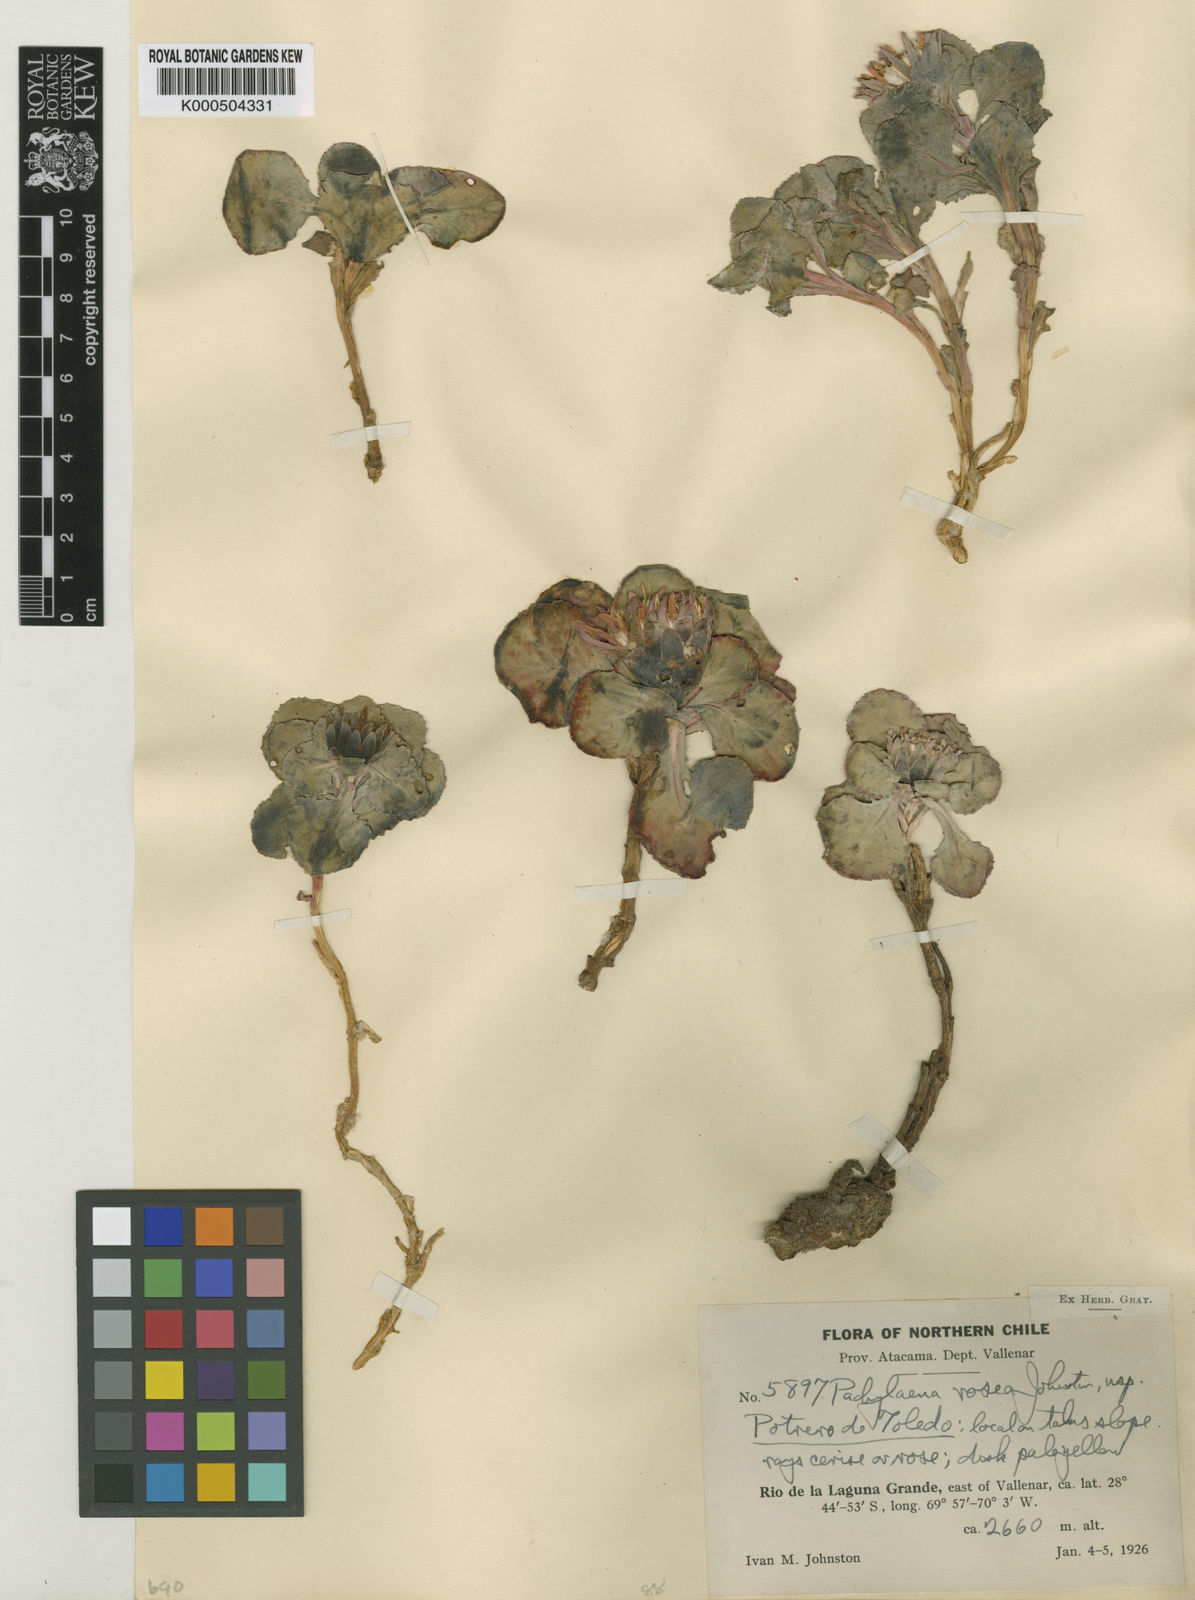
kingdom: Plantae
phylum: Tracheophyta
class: Magnoliopsida
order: Asterales
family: Asteraceae
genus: Pachylaena
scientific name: Pachylaena atriplicifolia
